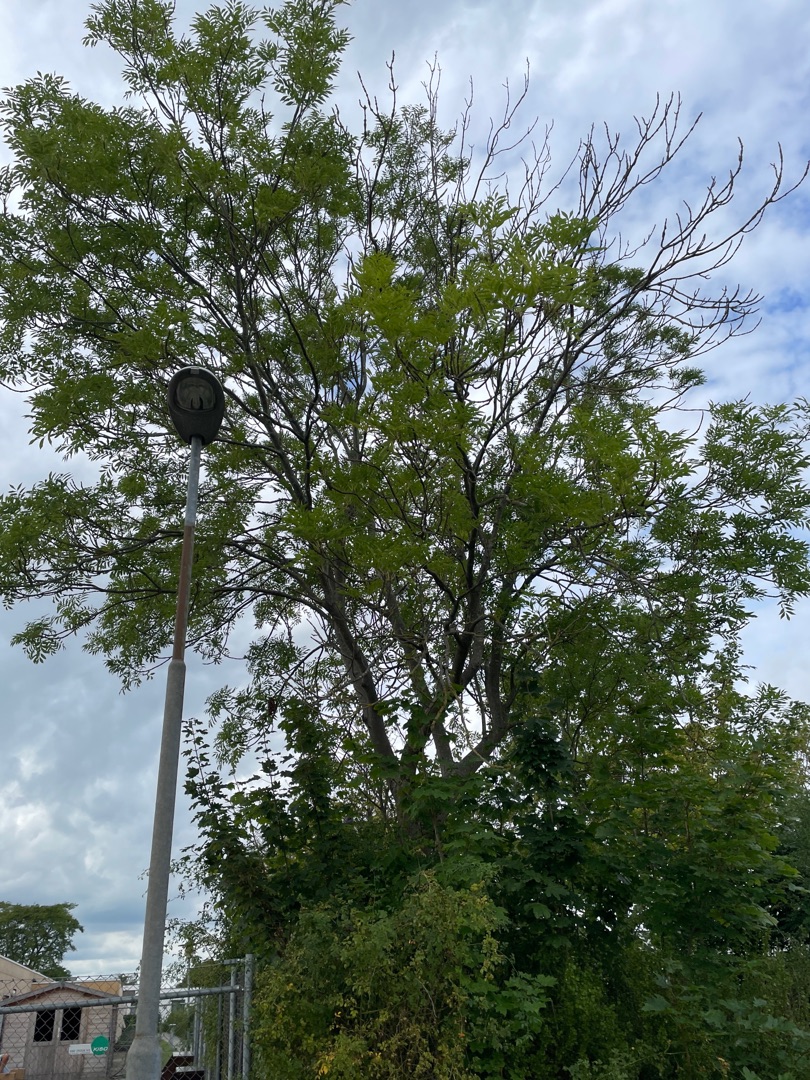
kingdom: Plantae
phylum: Tracheophyta
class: Magnoliopsida
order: Lamiales
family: Oleaceae
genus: Fraxinus
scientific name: Fraxinus excelsior
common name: Ask
